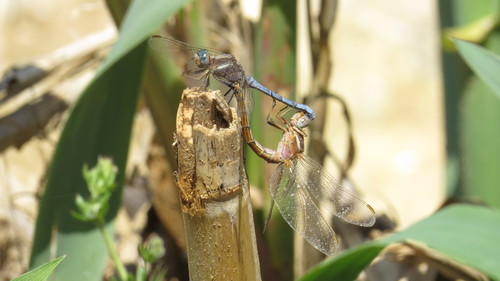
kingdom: Animalia
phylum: Arthropoda
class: Insecta
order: Odonata
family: Libellulidae
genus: Orthetrum
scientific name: Orthetrum chrysostigma
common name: Epaulet skimmer
